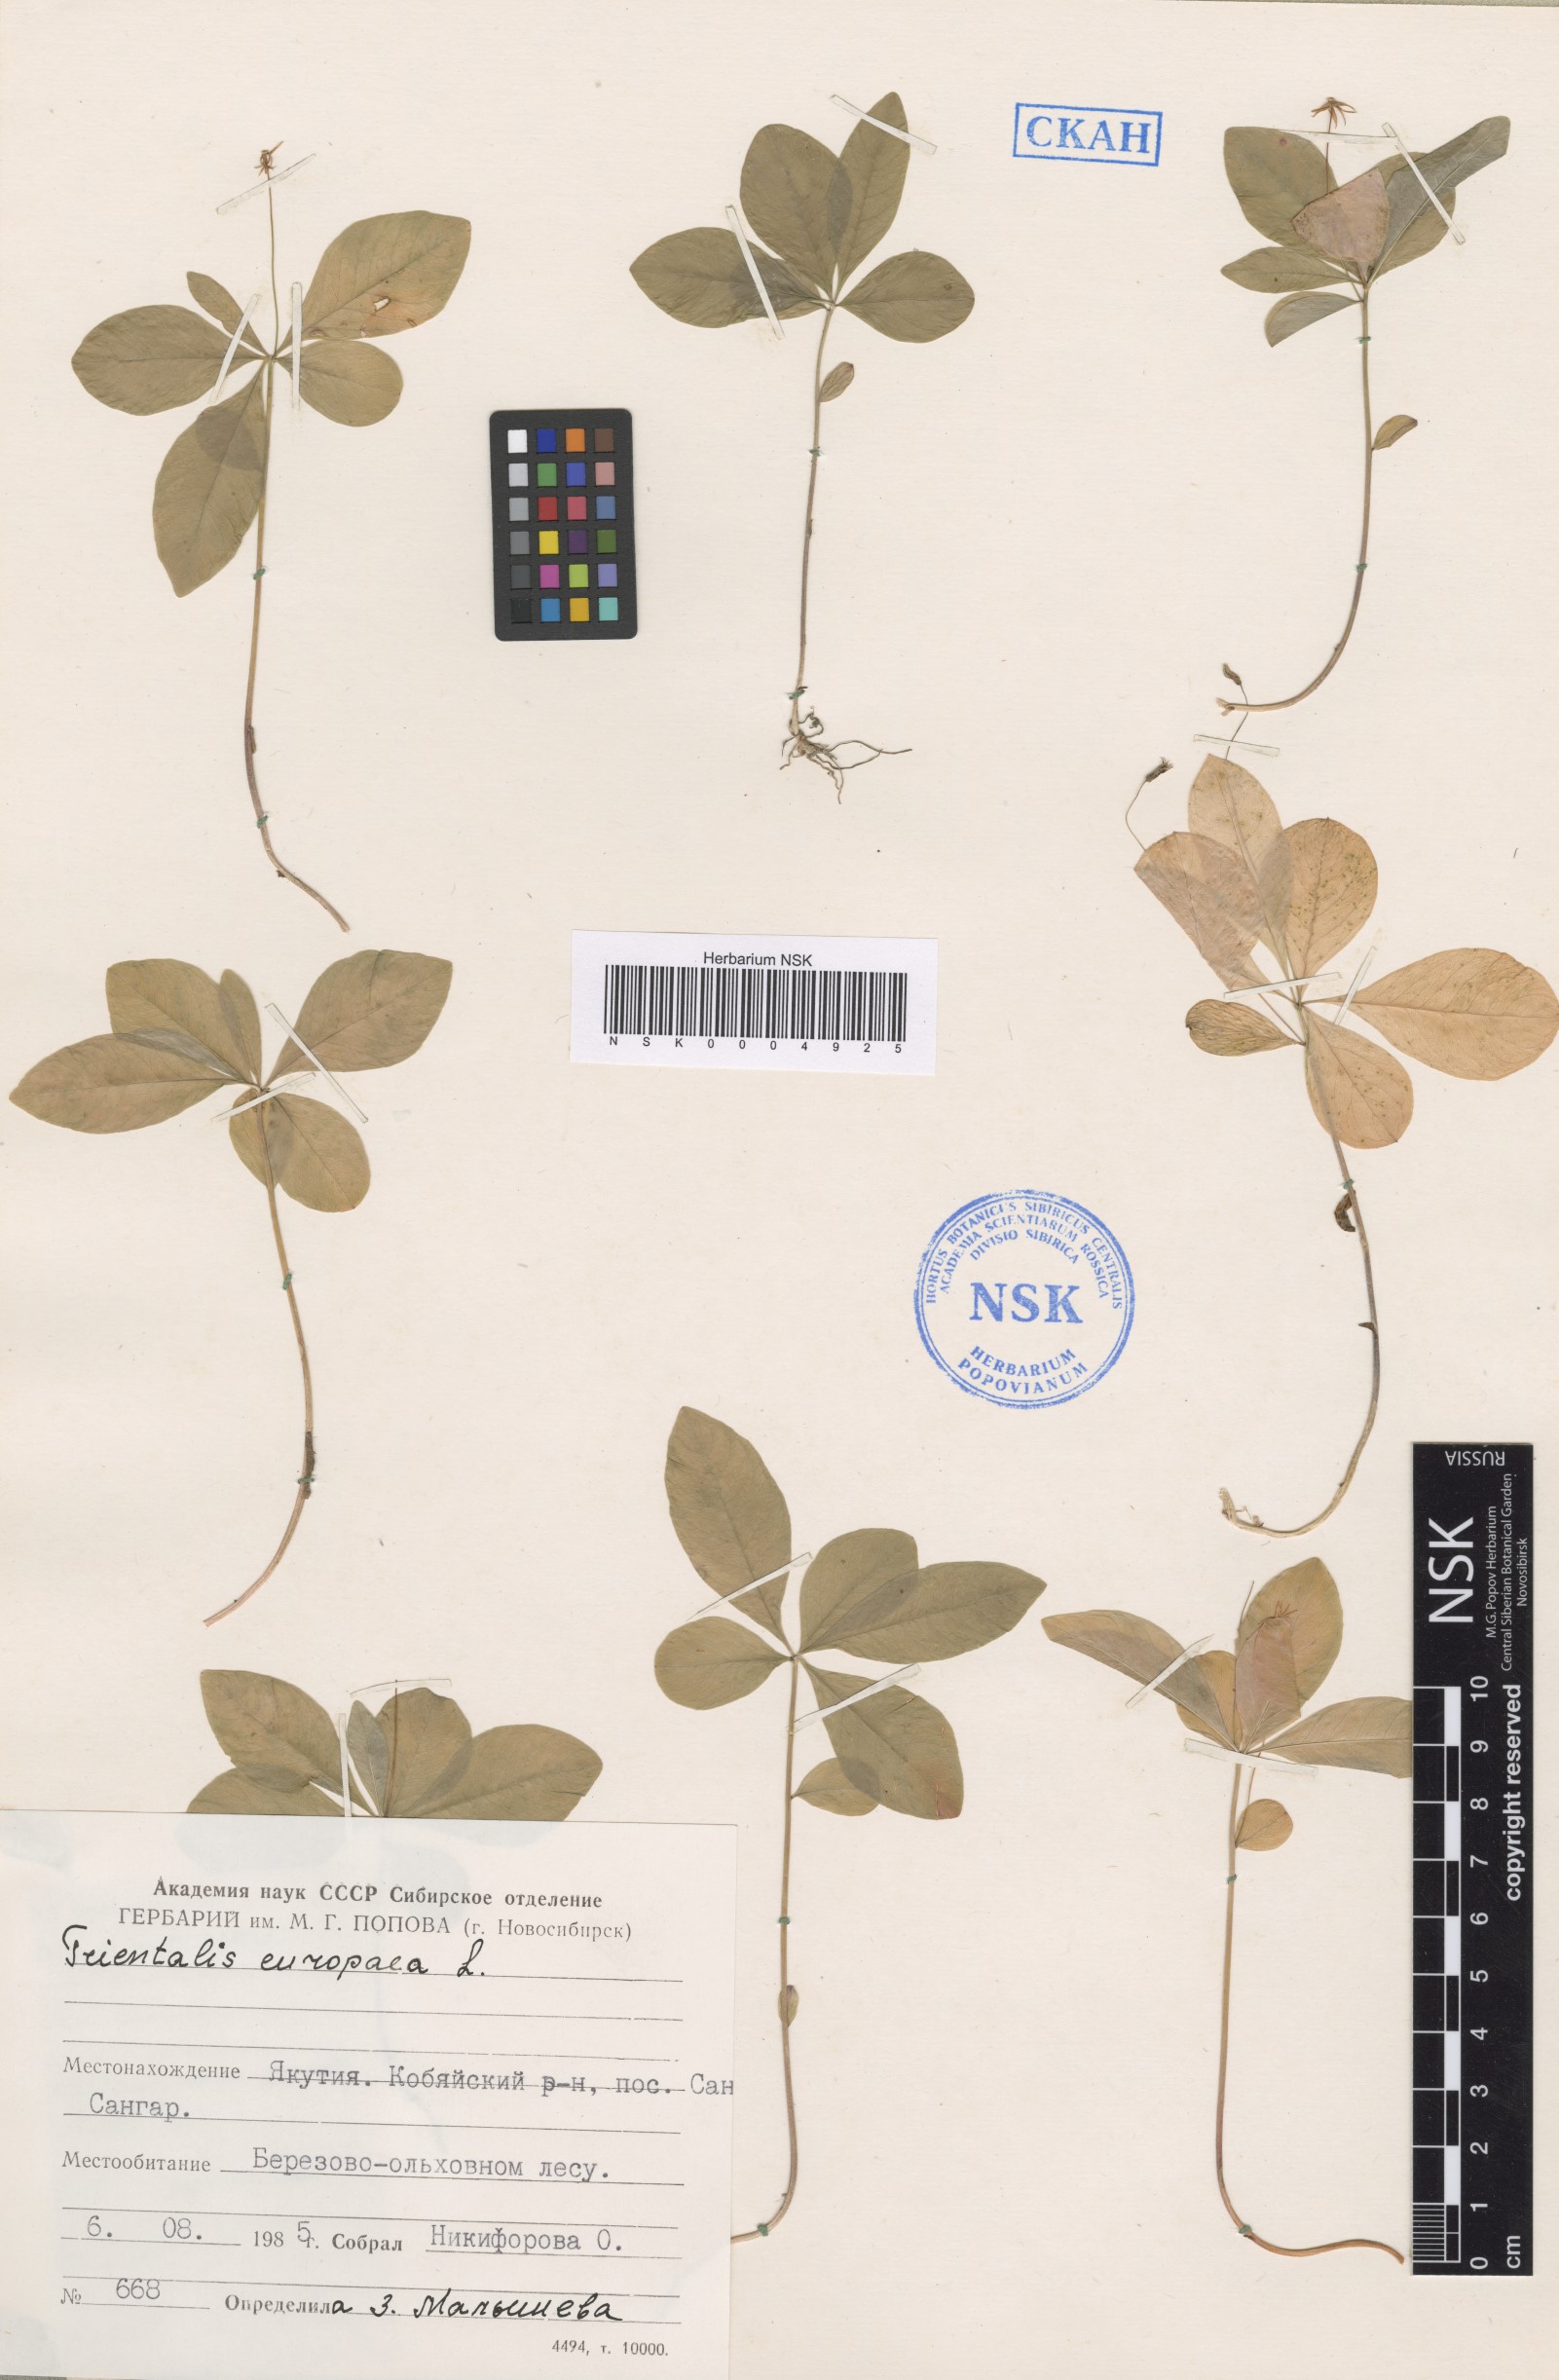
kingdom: Plantae
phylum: Tracheophyta
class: Magnoliopsida
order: Ericales
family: Primulaceae
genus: Lysimachia
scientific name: Lysimachia europaea
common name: Arctic starflower
